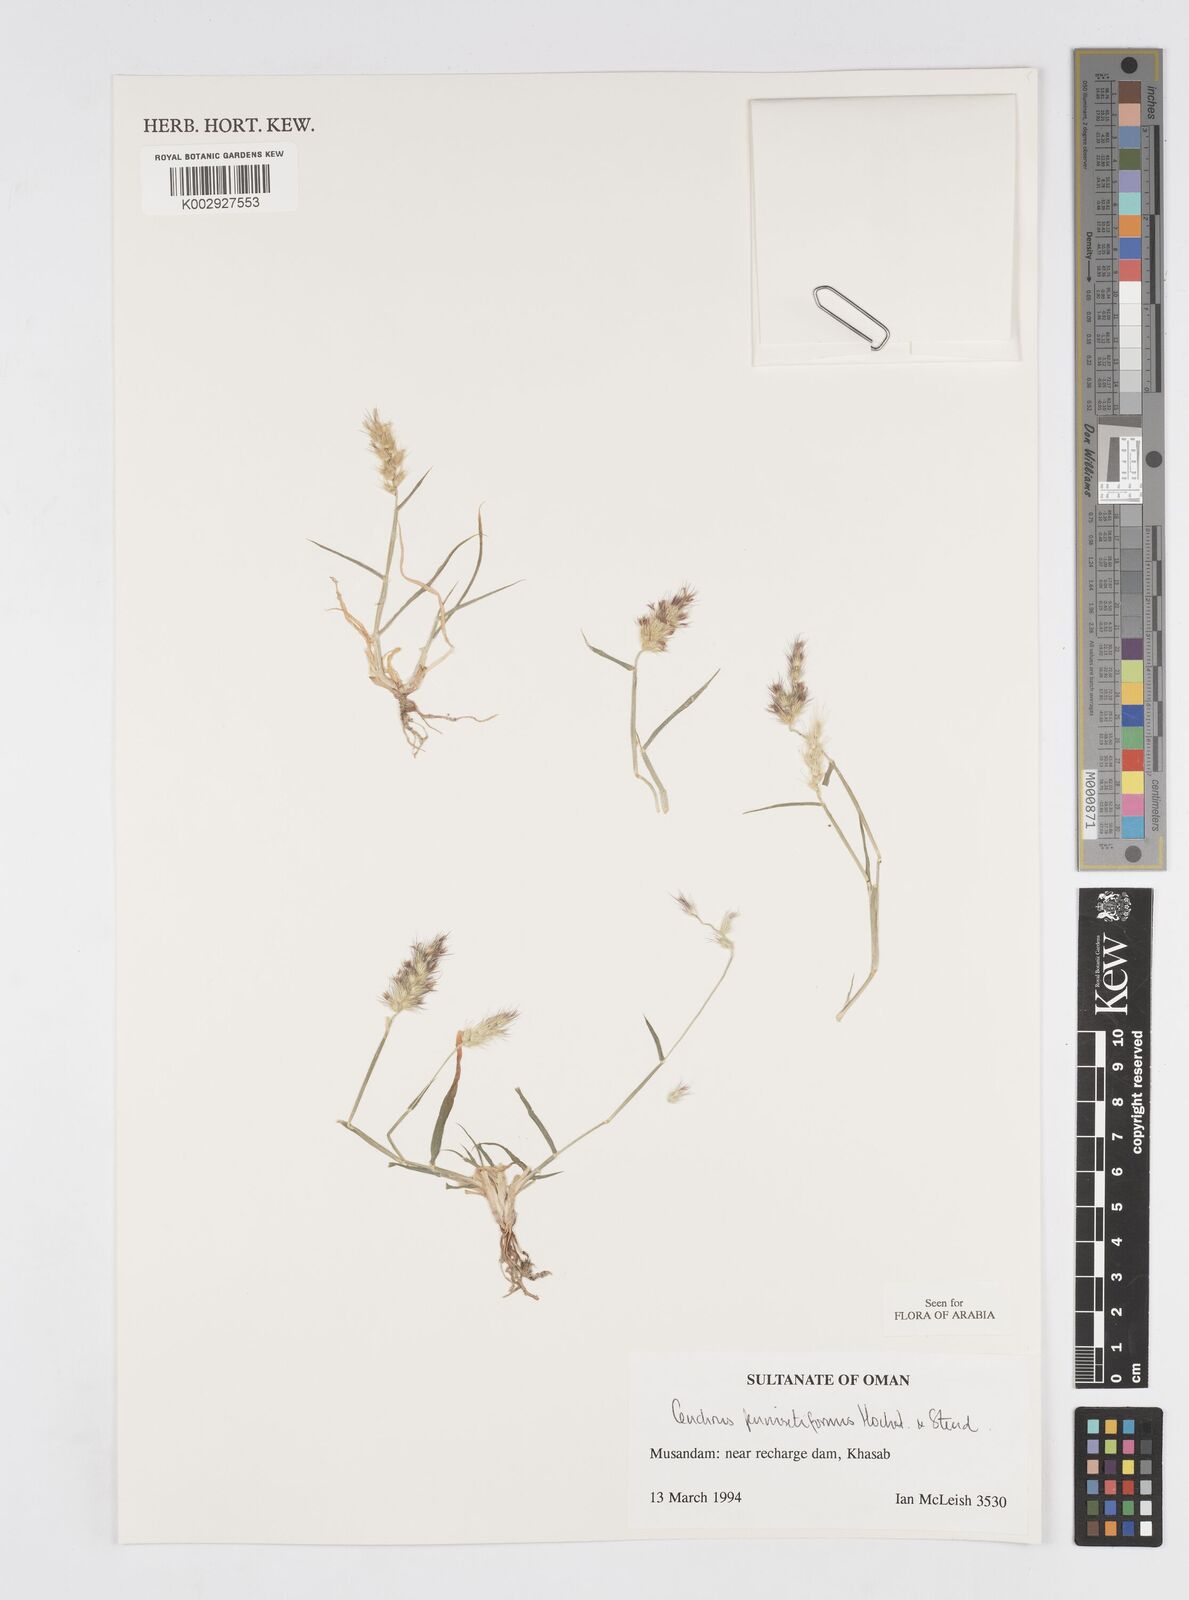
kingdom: Plantae
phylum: Tracheophyta
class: Liliopsida
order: Poales
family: Poaceae
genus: Cenchrus
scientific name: Cenchrus pennisetiformis
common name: Cloncurry
